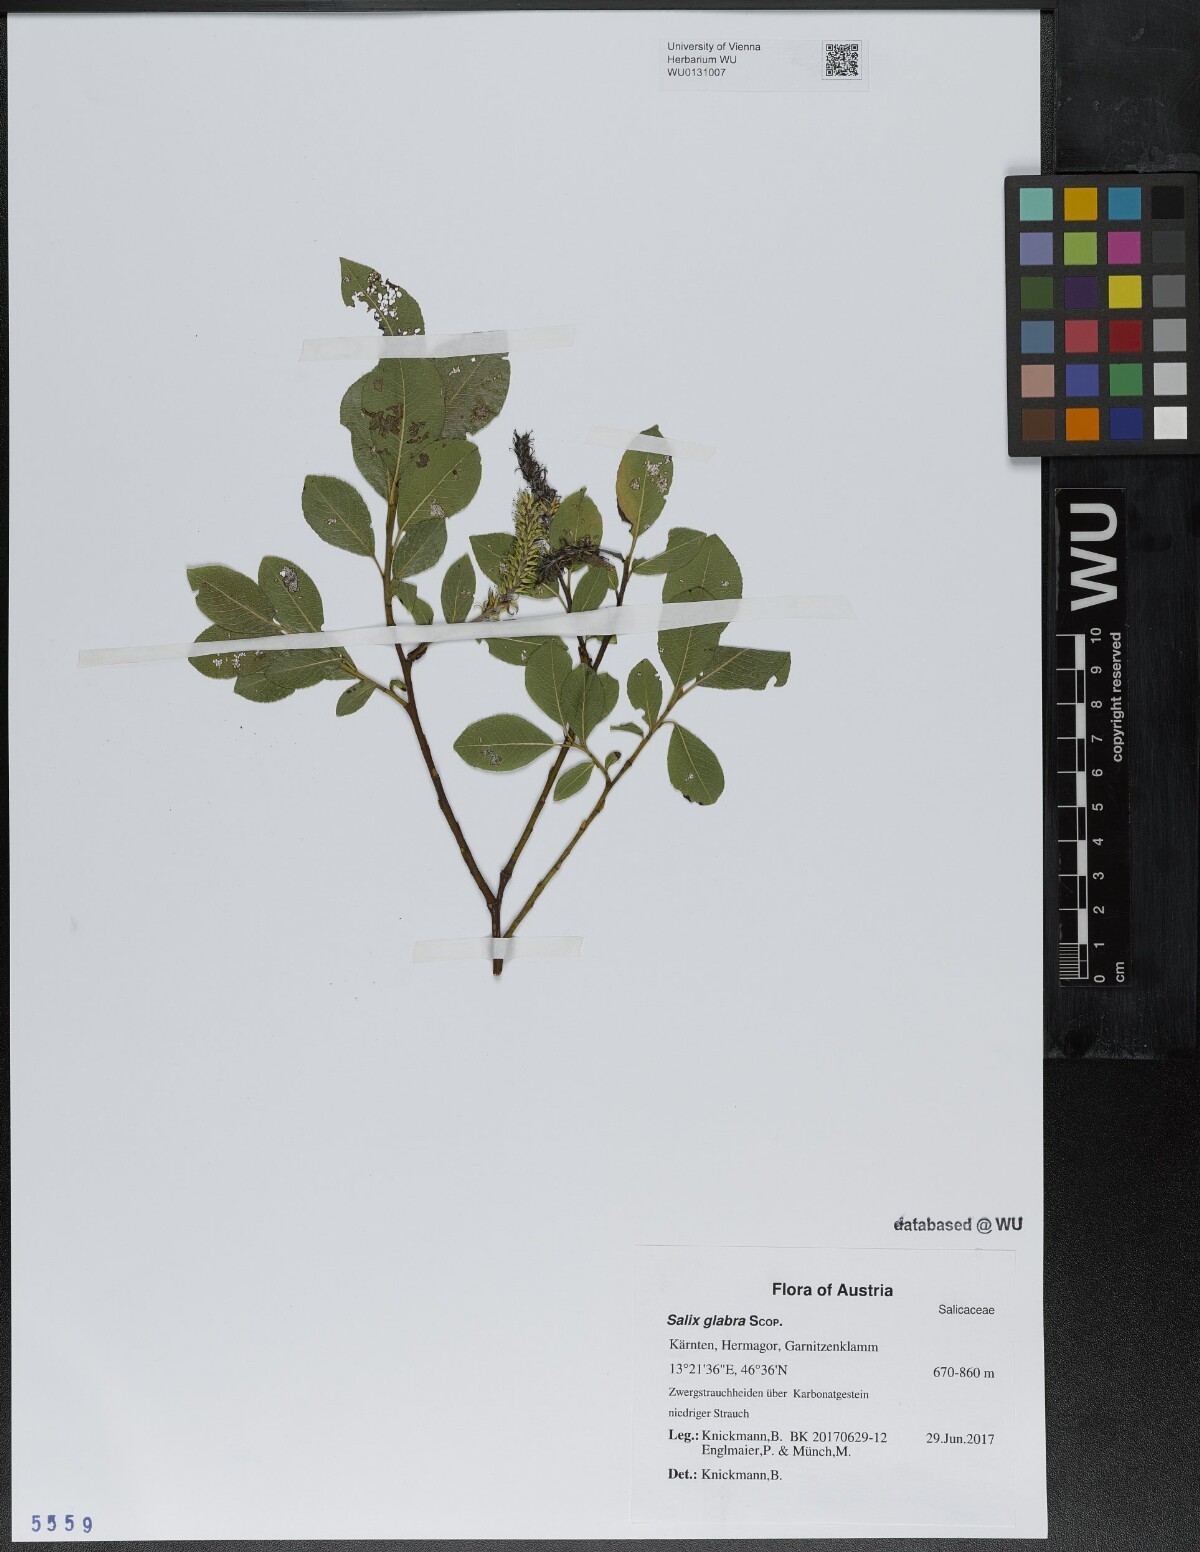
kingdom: Plantae
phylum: Tracheophyta
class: Magnoliopsida
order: Malpighiales
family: Salicaceae
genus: Salix
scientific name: Salix glabra
